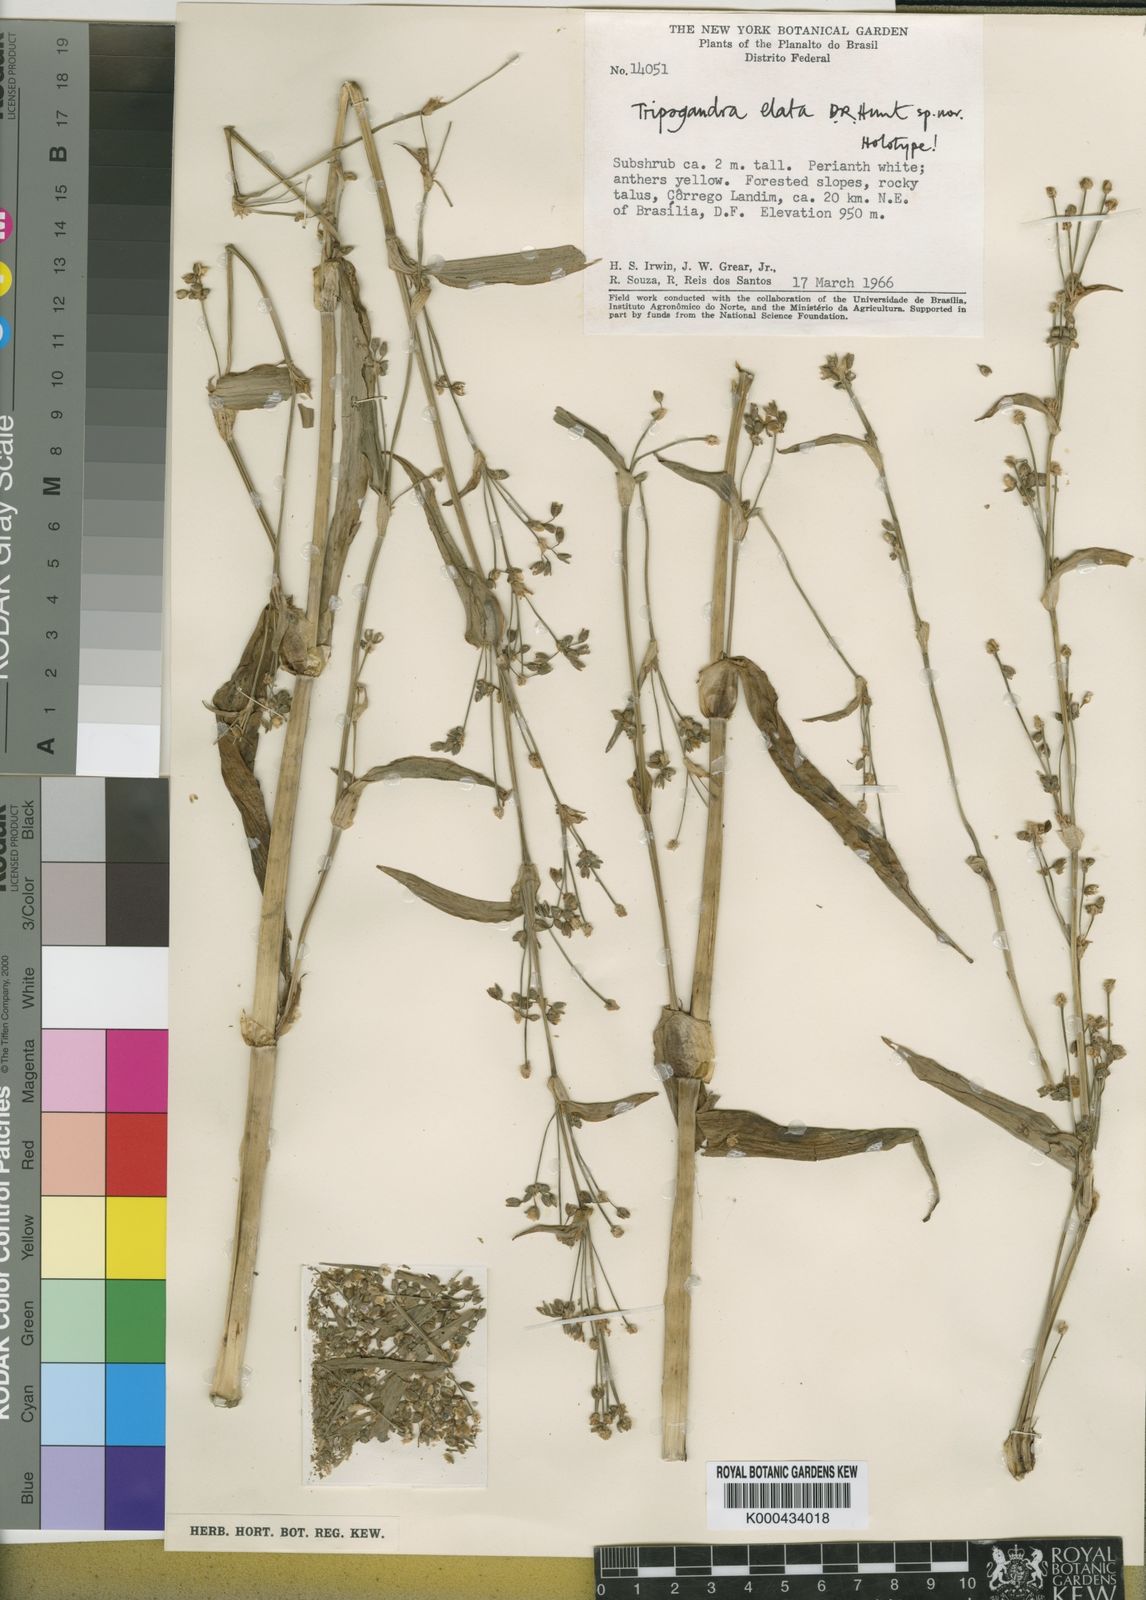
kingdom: Plantae
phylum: Tracheophyta
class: Liliopsida
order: Commelinales
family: Commelinaceae
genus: Callisia
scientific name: Callisia elata
